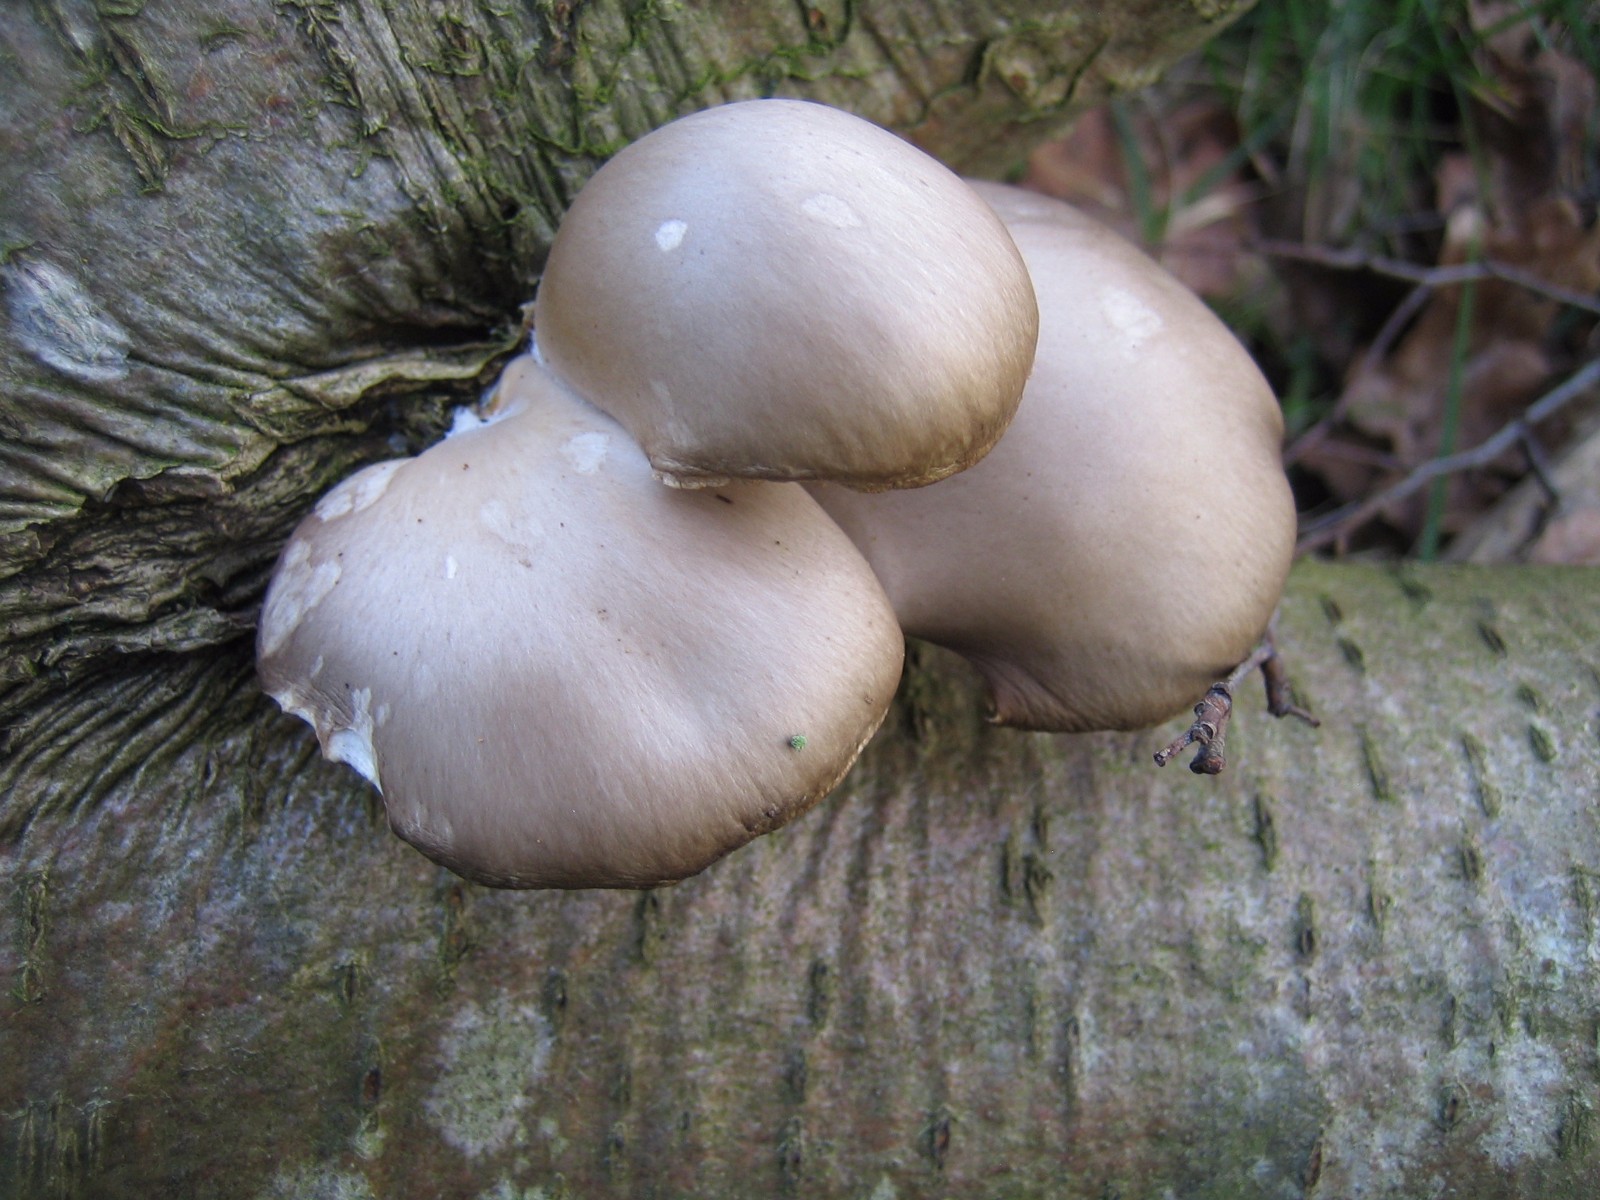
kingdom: Fungi
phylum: Basidiomycota
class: Agaricomycetes
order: Agaricales
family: Pleurotaceae
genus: Pleurotus
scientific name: Pleurotus ostreatus
